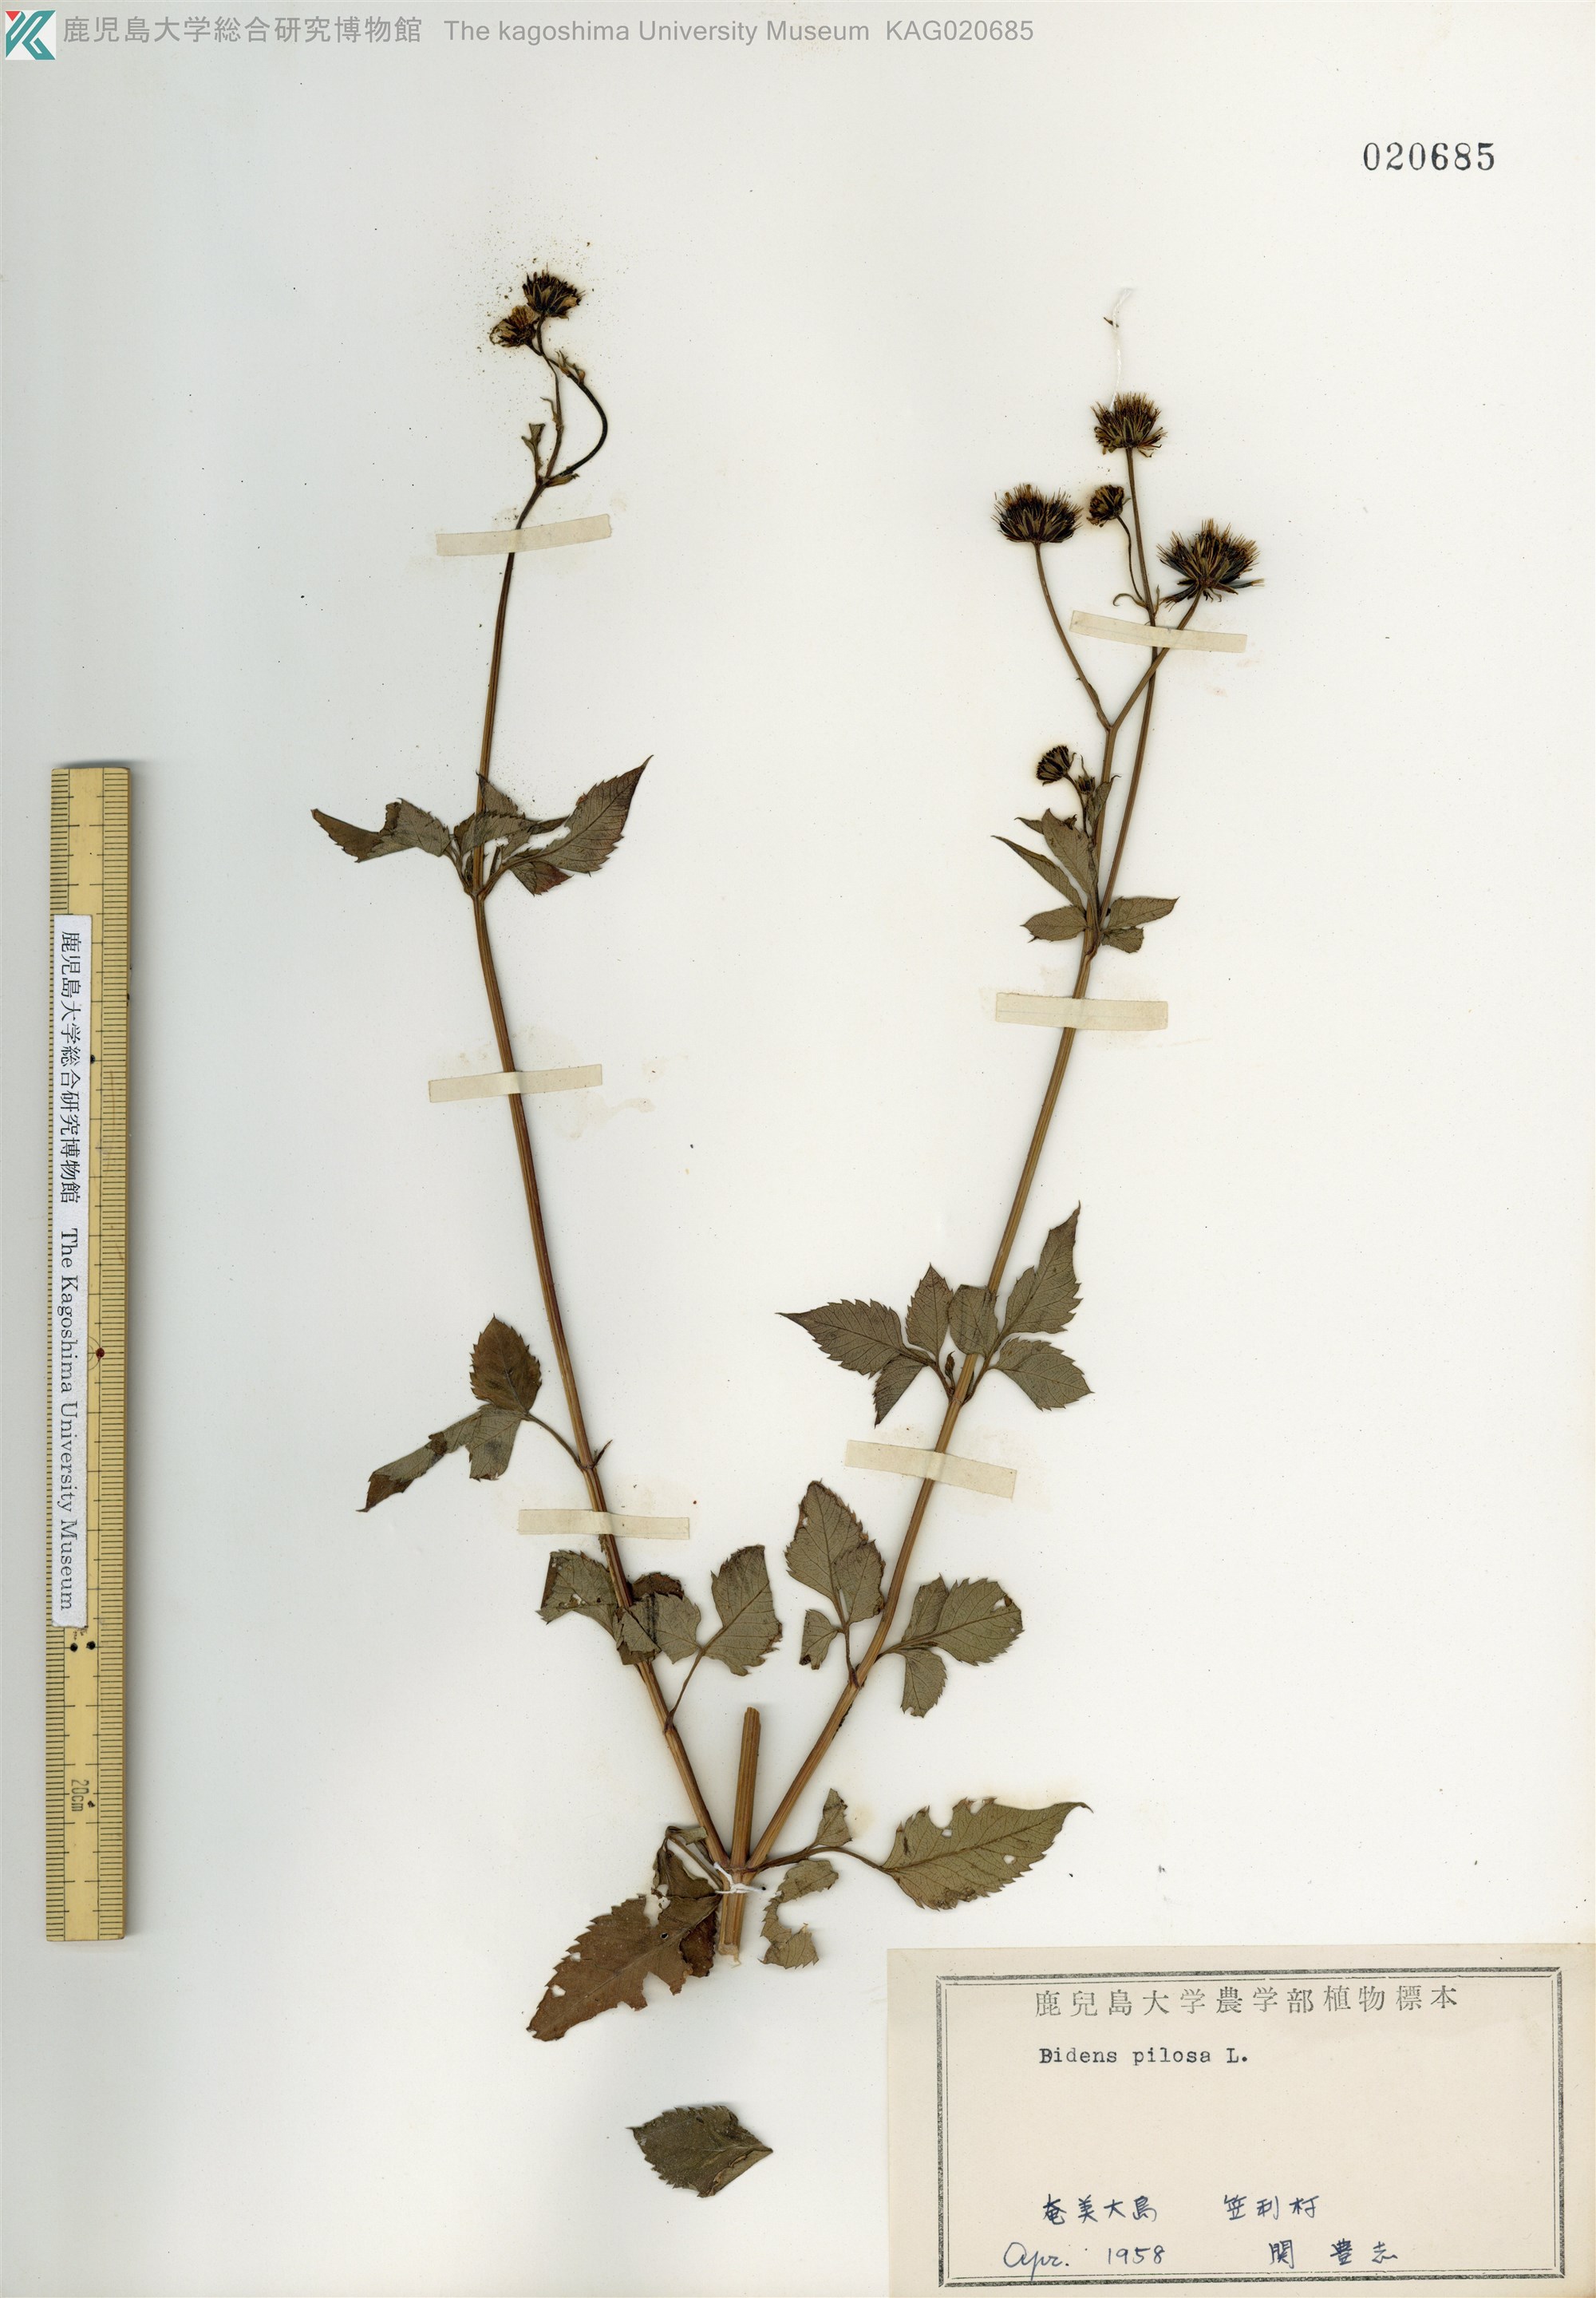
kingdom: Plantae
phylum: Tracheophyta
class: Magnoliopsida
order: Asterales
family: Asteraceae
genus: Bidens
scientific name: Bidens pilosa
